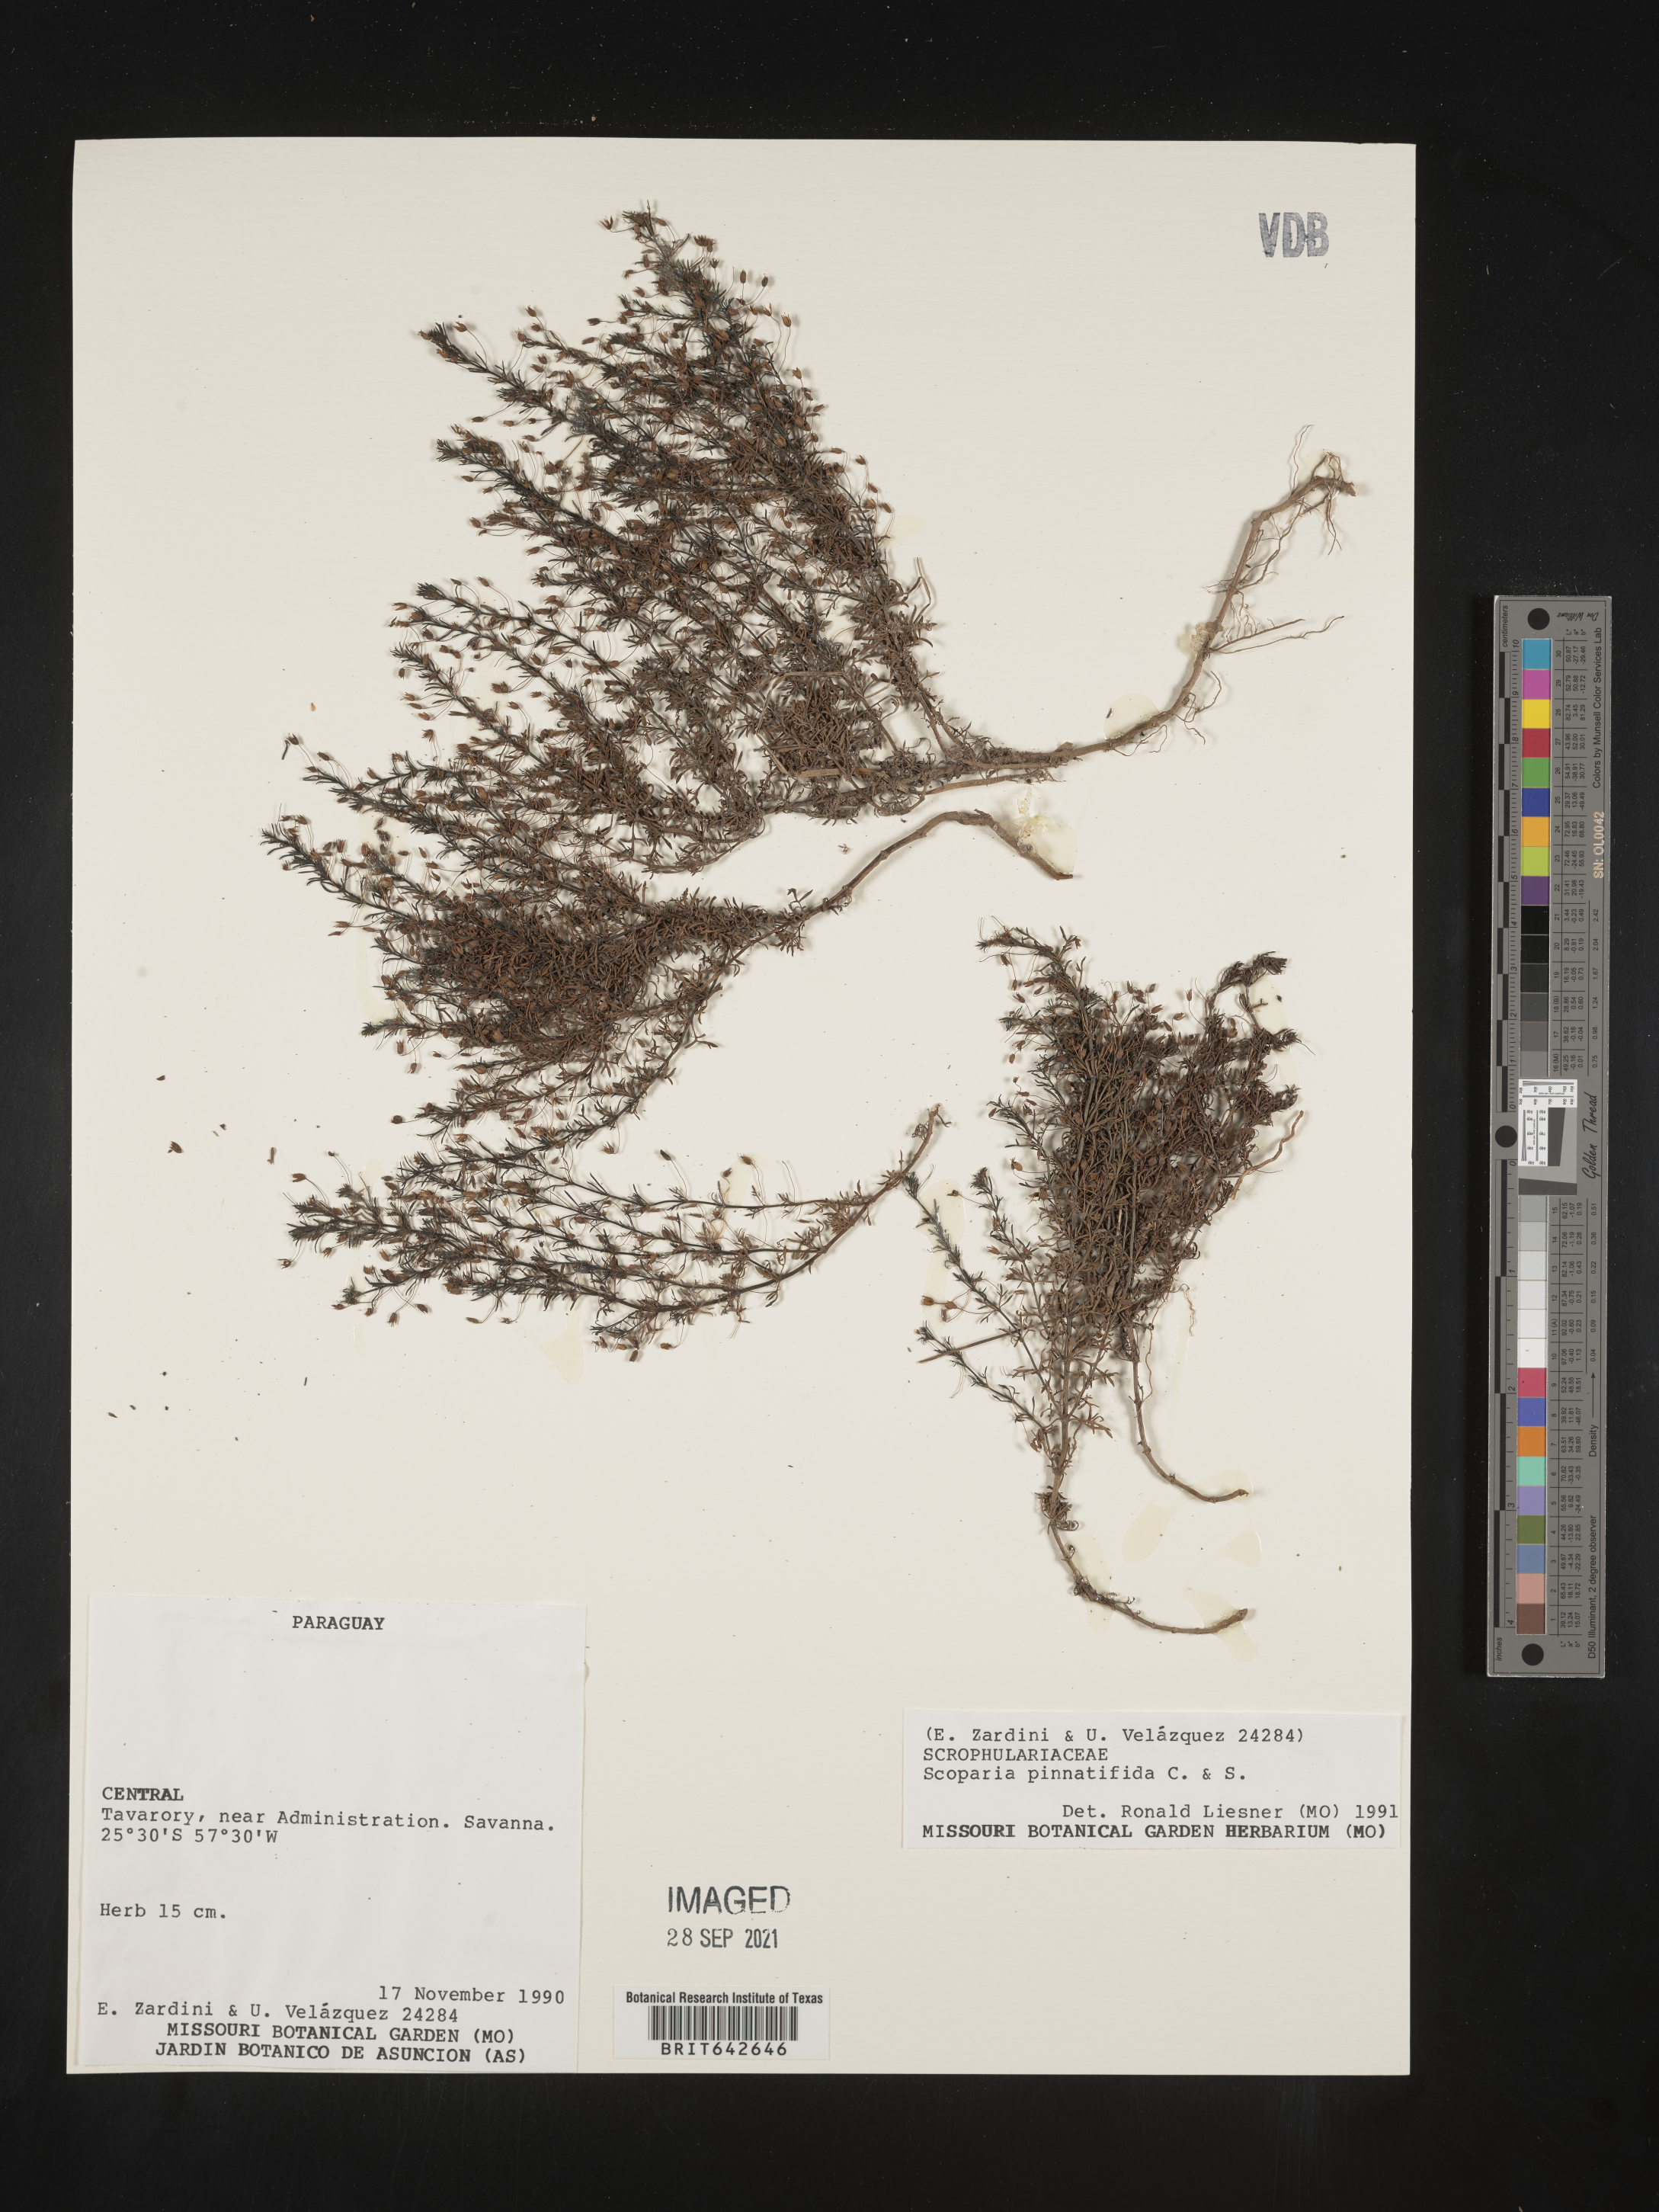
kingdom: Plantae
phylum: Tracheophyta
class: Magnoliopsida
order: Lamiales
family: Plantaginaceae
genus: Scoparia
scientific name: Scoparia
